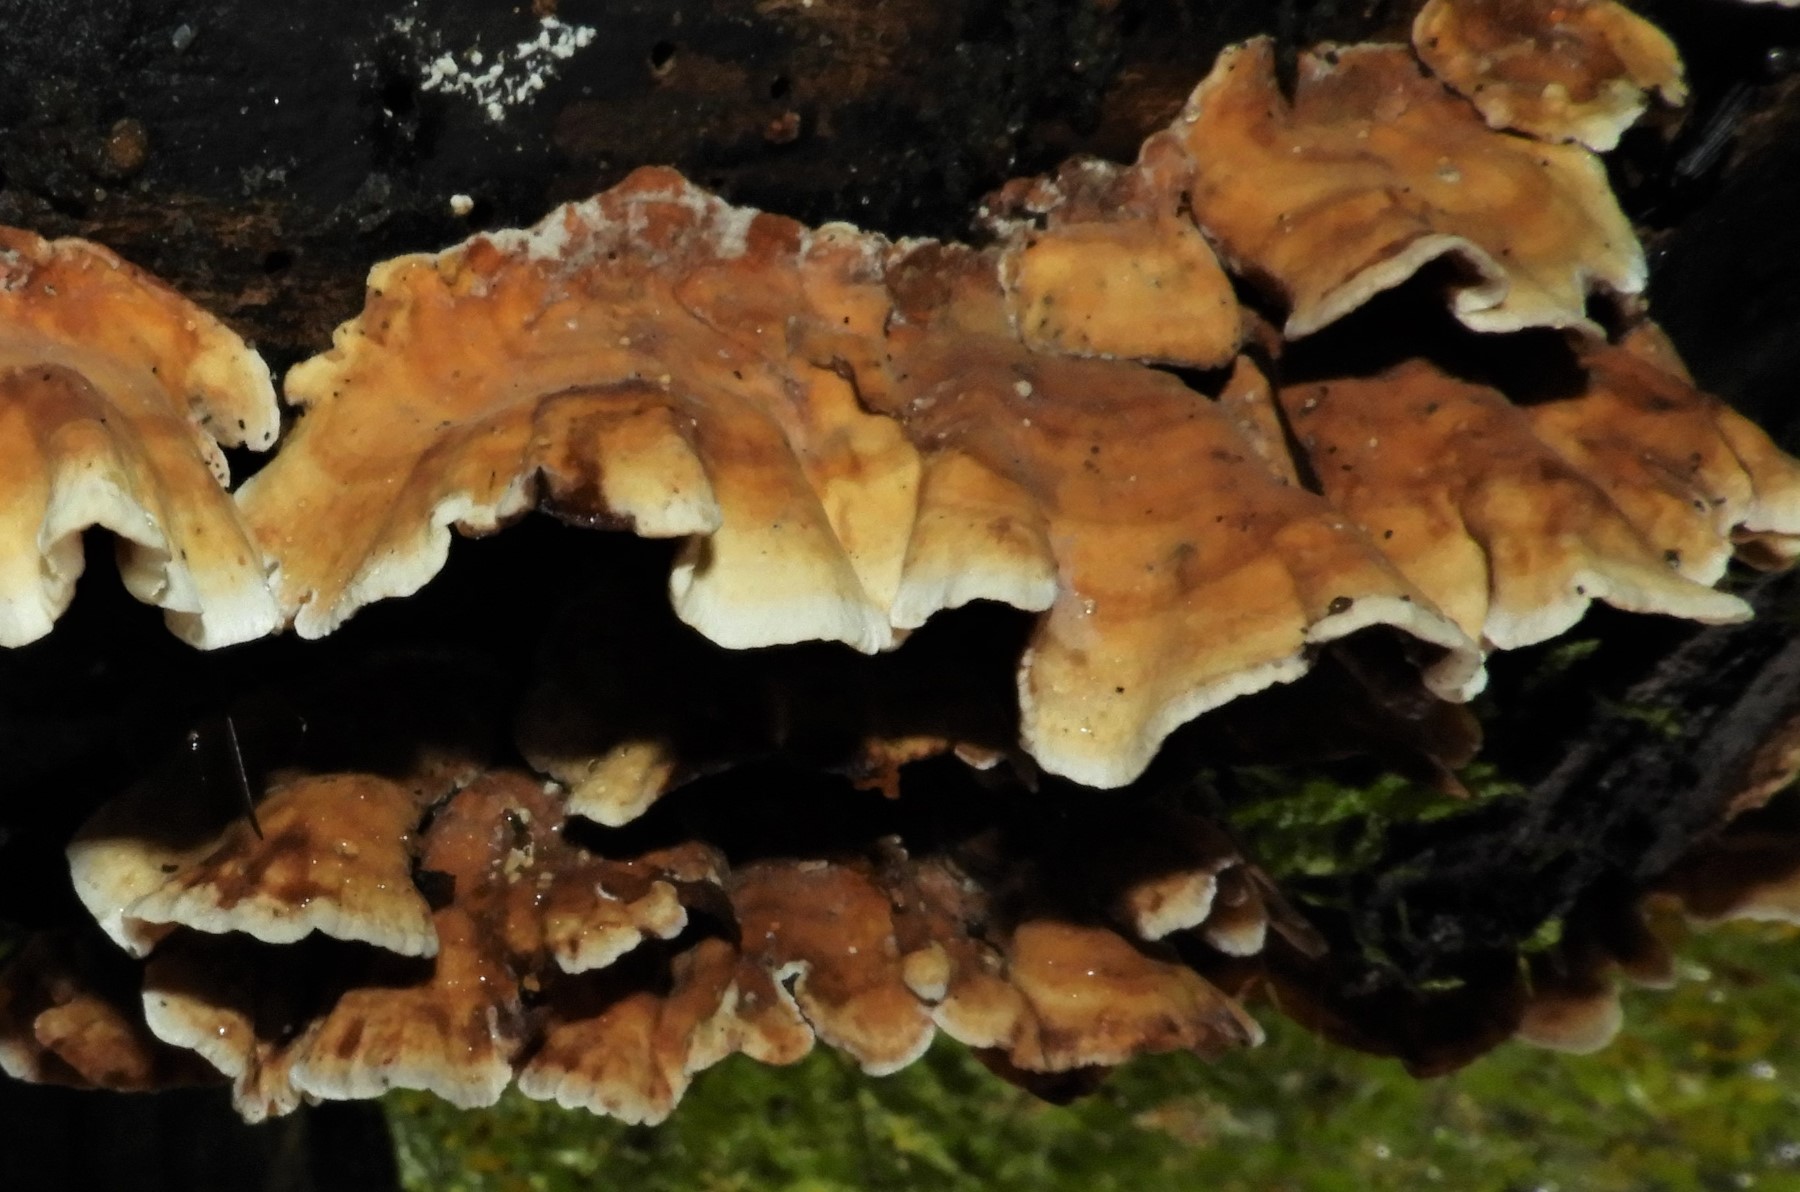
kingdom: Fungi
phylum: Basidiomycota
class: Agaricomycetes
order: Russulales
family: Stereaceae
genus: Stereum
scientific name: Stereum subtomentosum
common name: smuk lædersvamp
